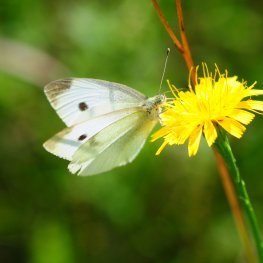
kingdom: Animalia
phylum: Arthropoda
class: Insecta
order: Lepidoptera
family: Pieridae
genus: Pieris
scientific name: Pieris rapae
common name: Cabbage White
